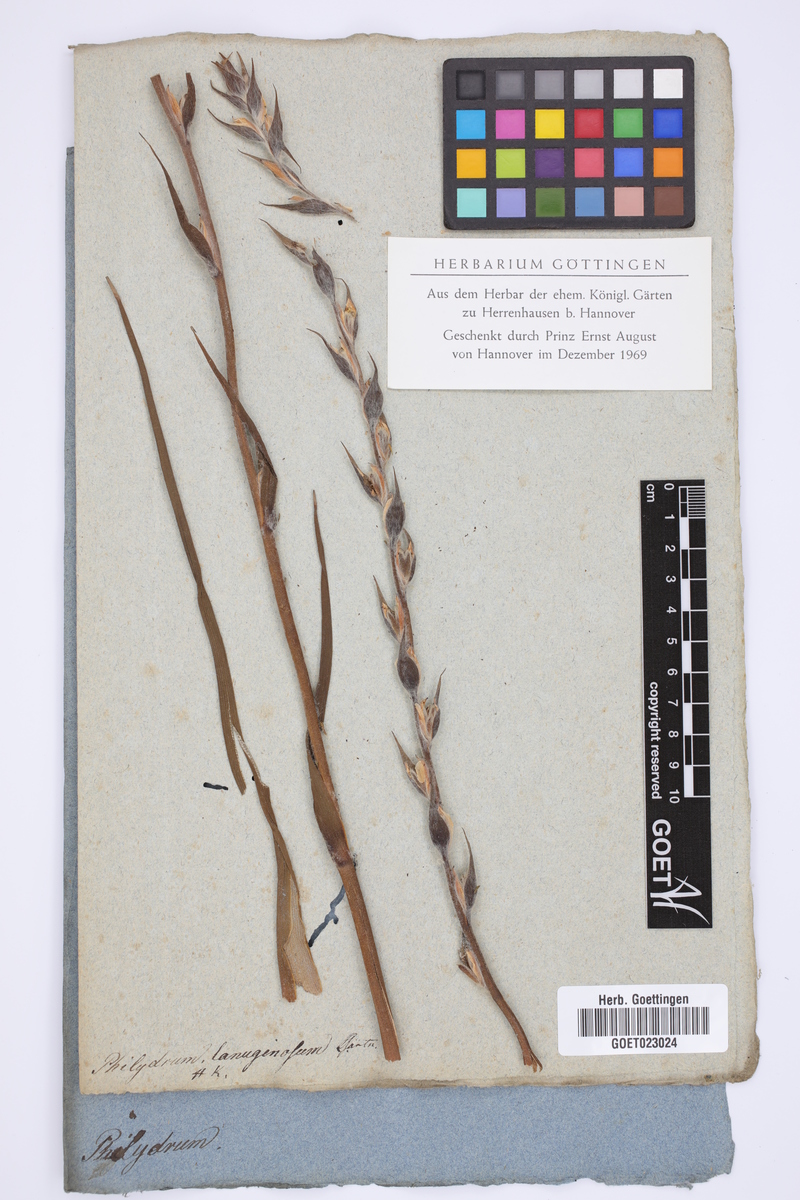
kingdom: Plantae
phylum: Tracheophyta
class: Liliopsida
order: Commelinales
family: Philydraceae
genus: Philydrum
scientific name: Philydrum lanuginosum
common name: Woolly frog's mouth
